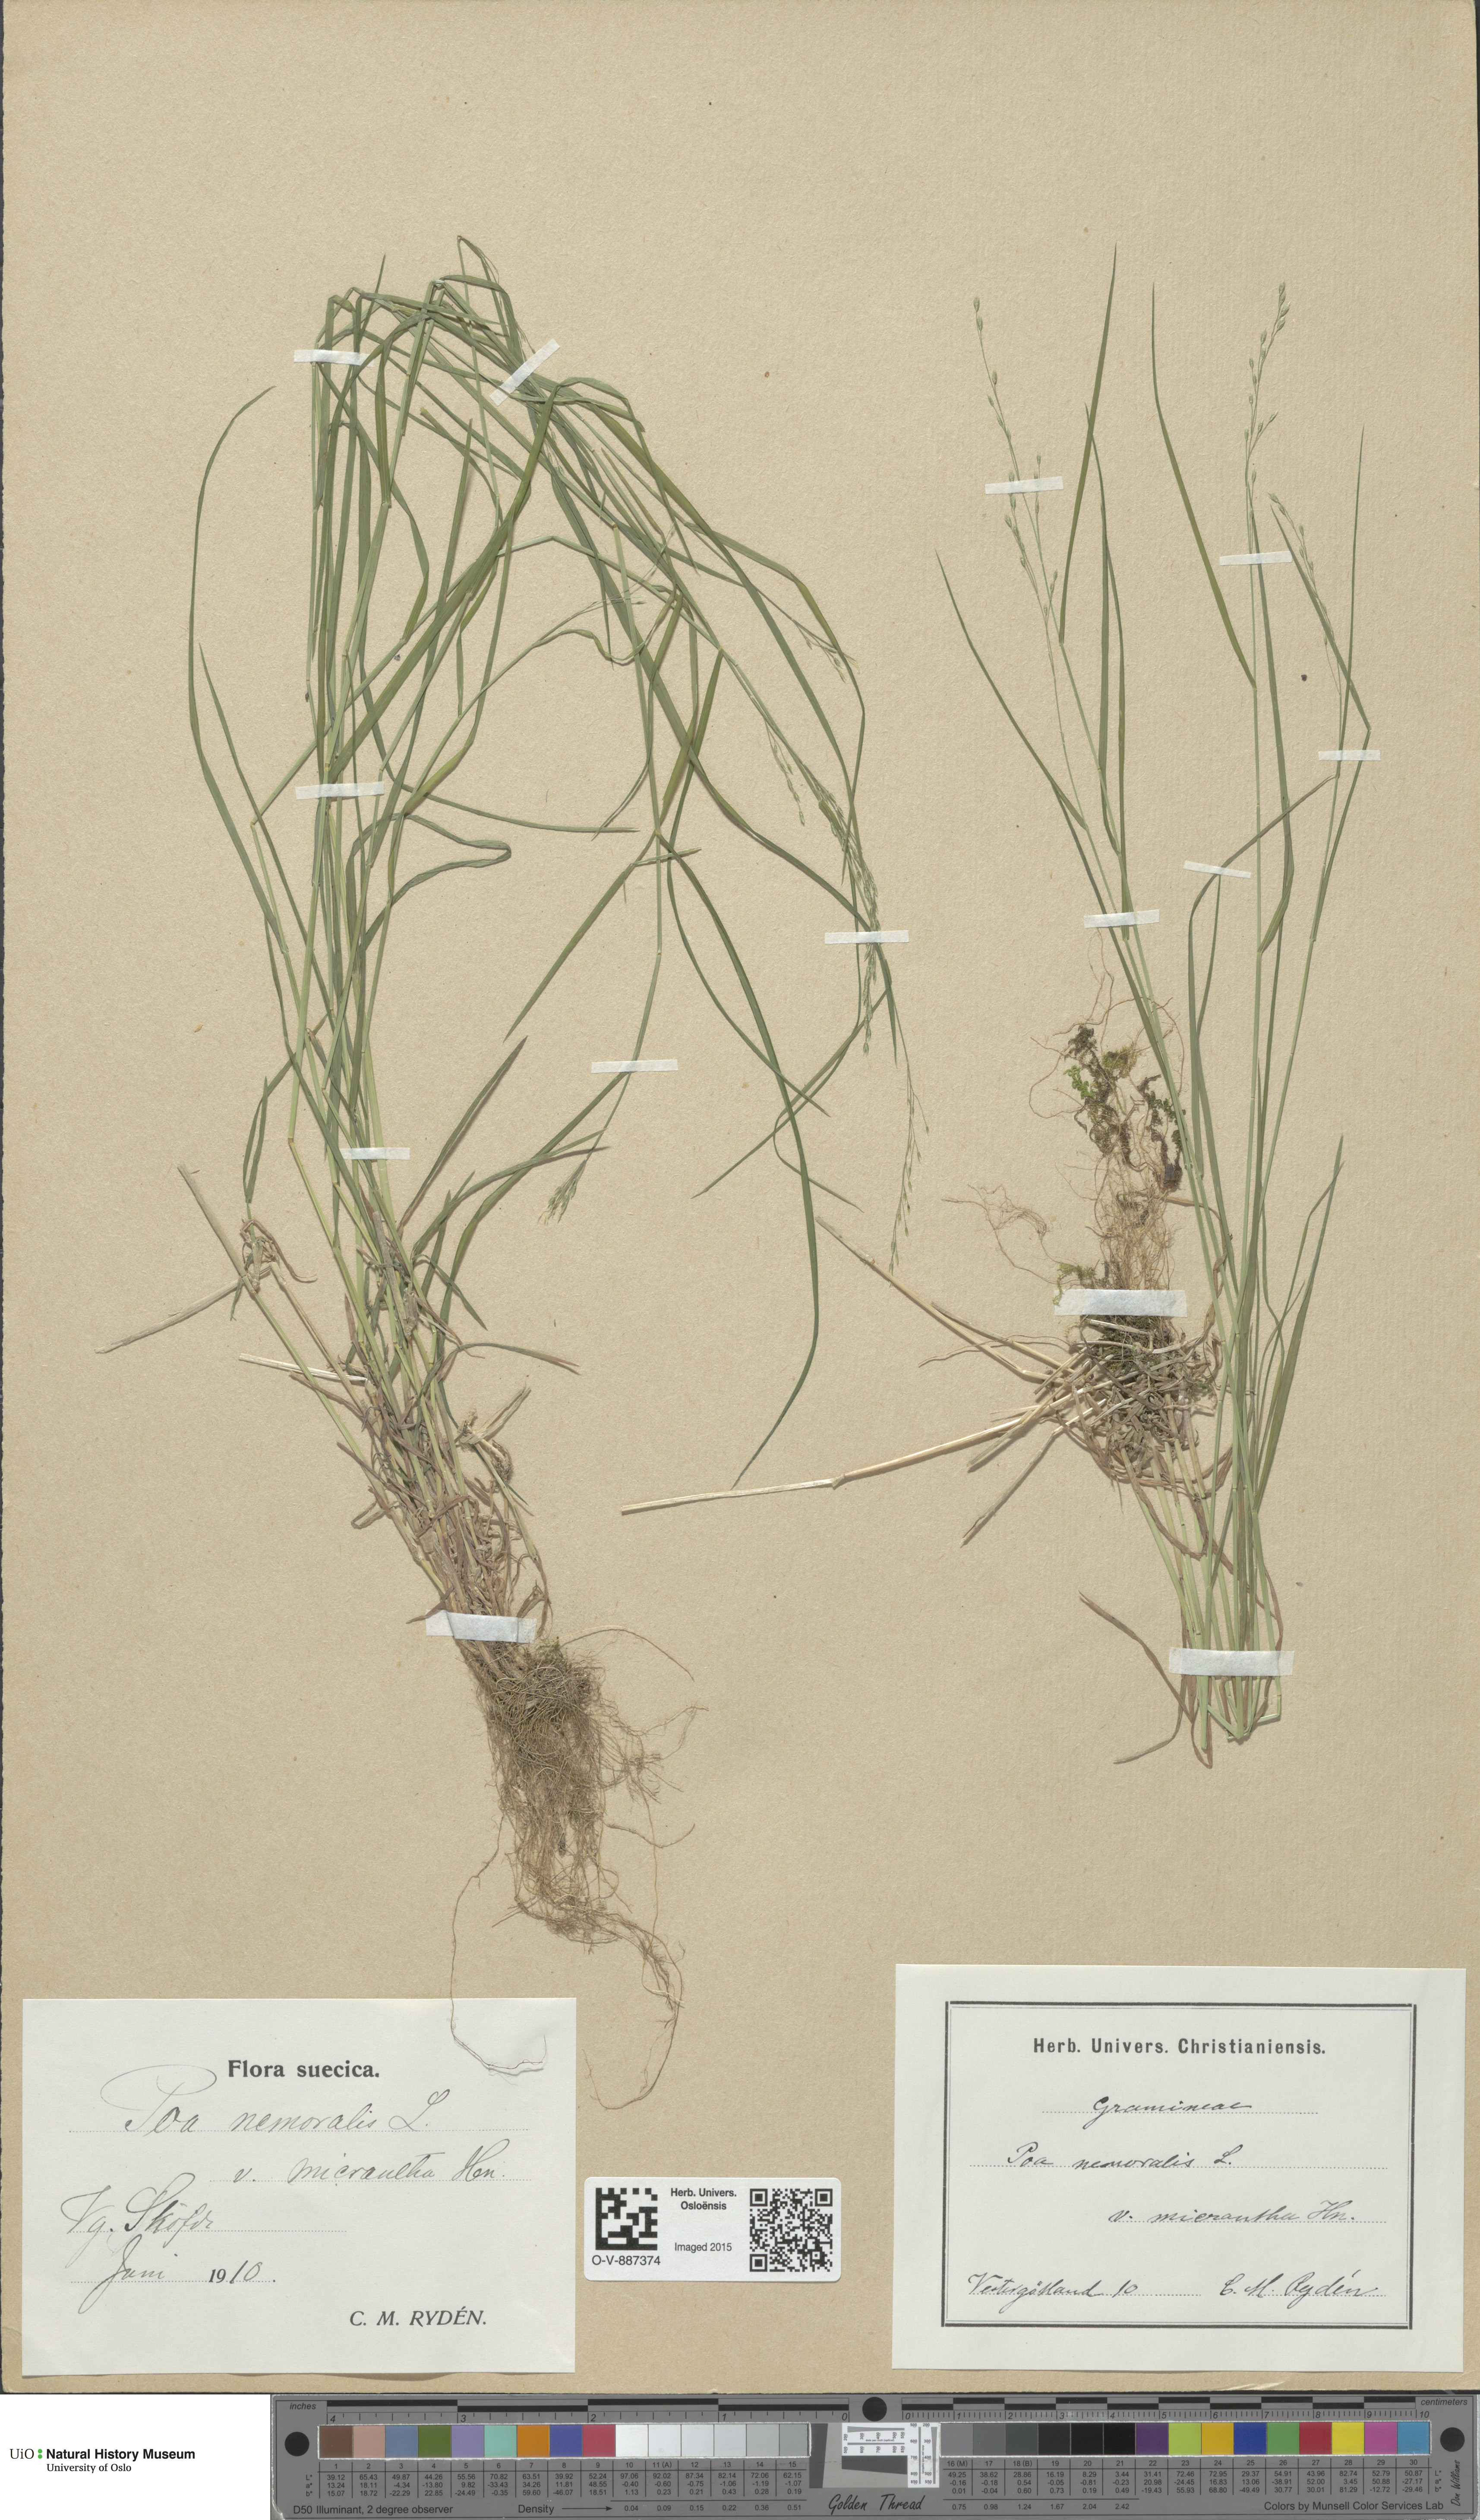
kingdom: Plantae
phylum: Tracheophyta
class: Liliopsida
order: Poales
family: Poaceae
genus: Poa
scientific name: Poa nemoralis
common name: Wood bluegrass
